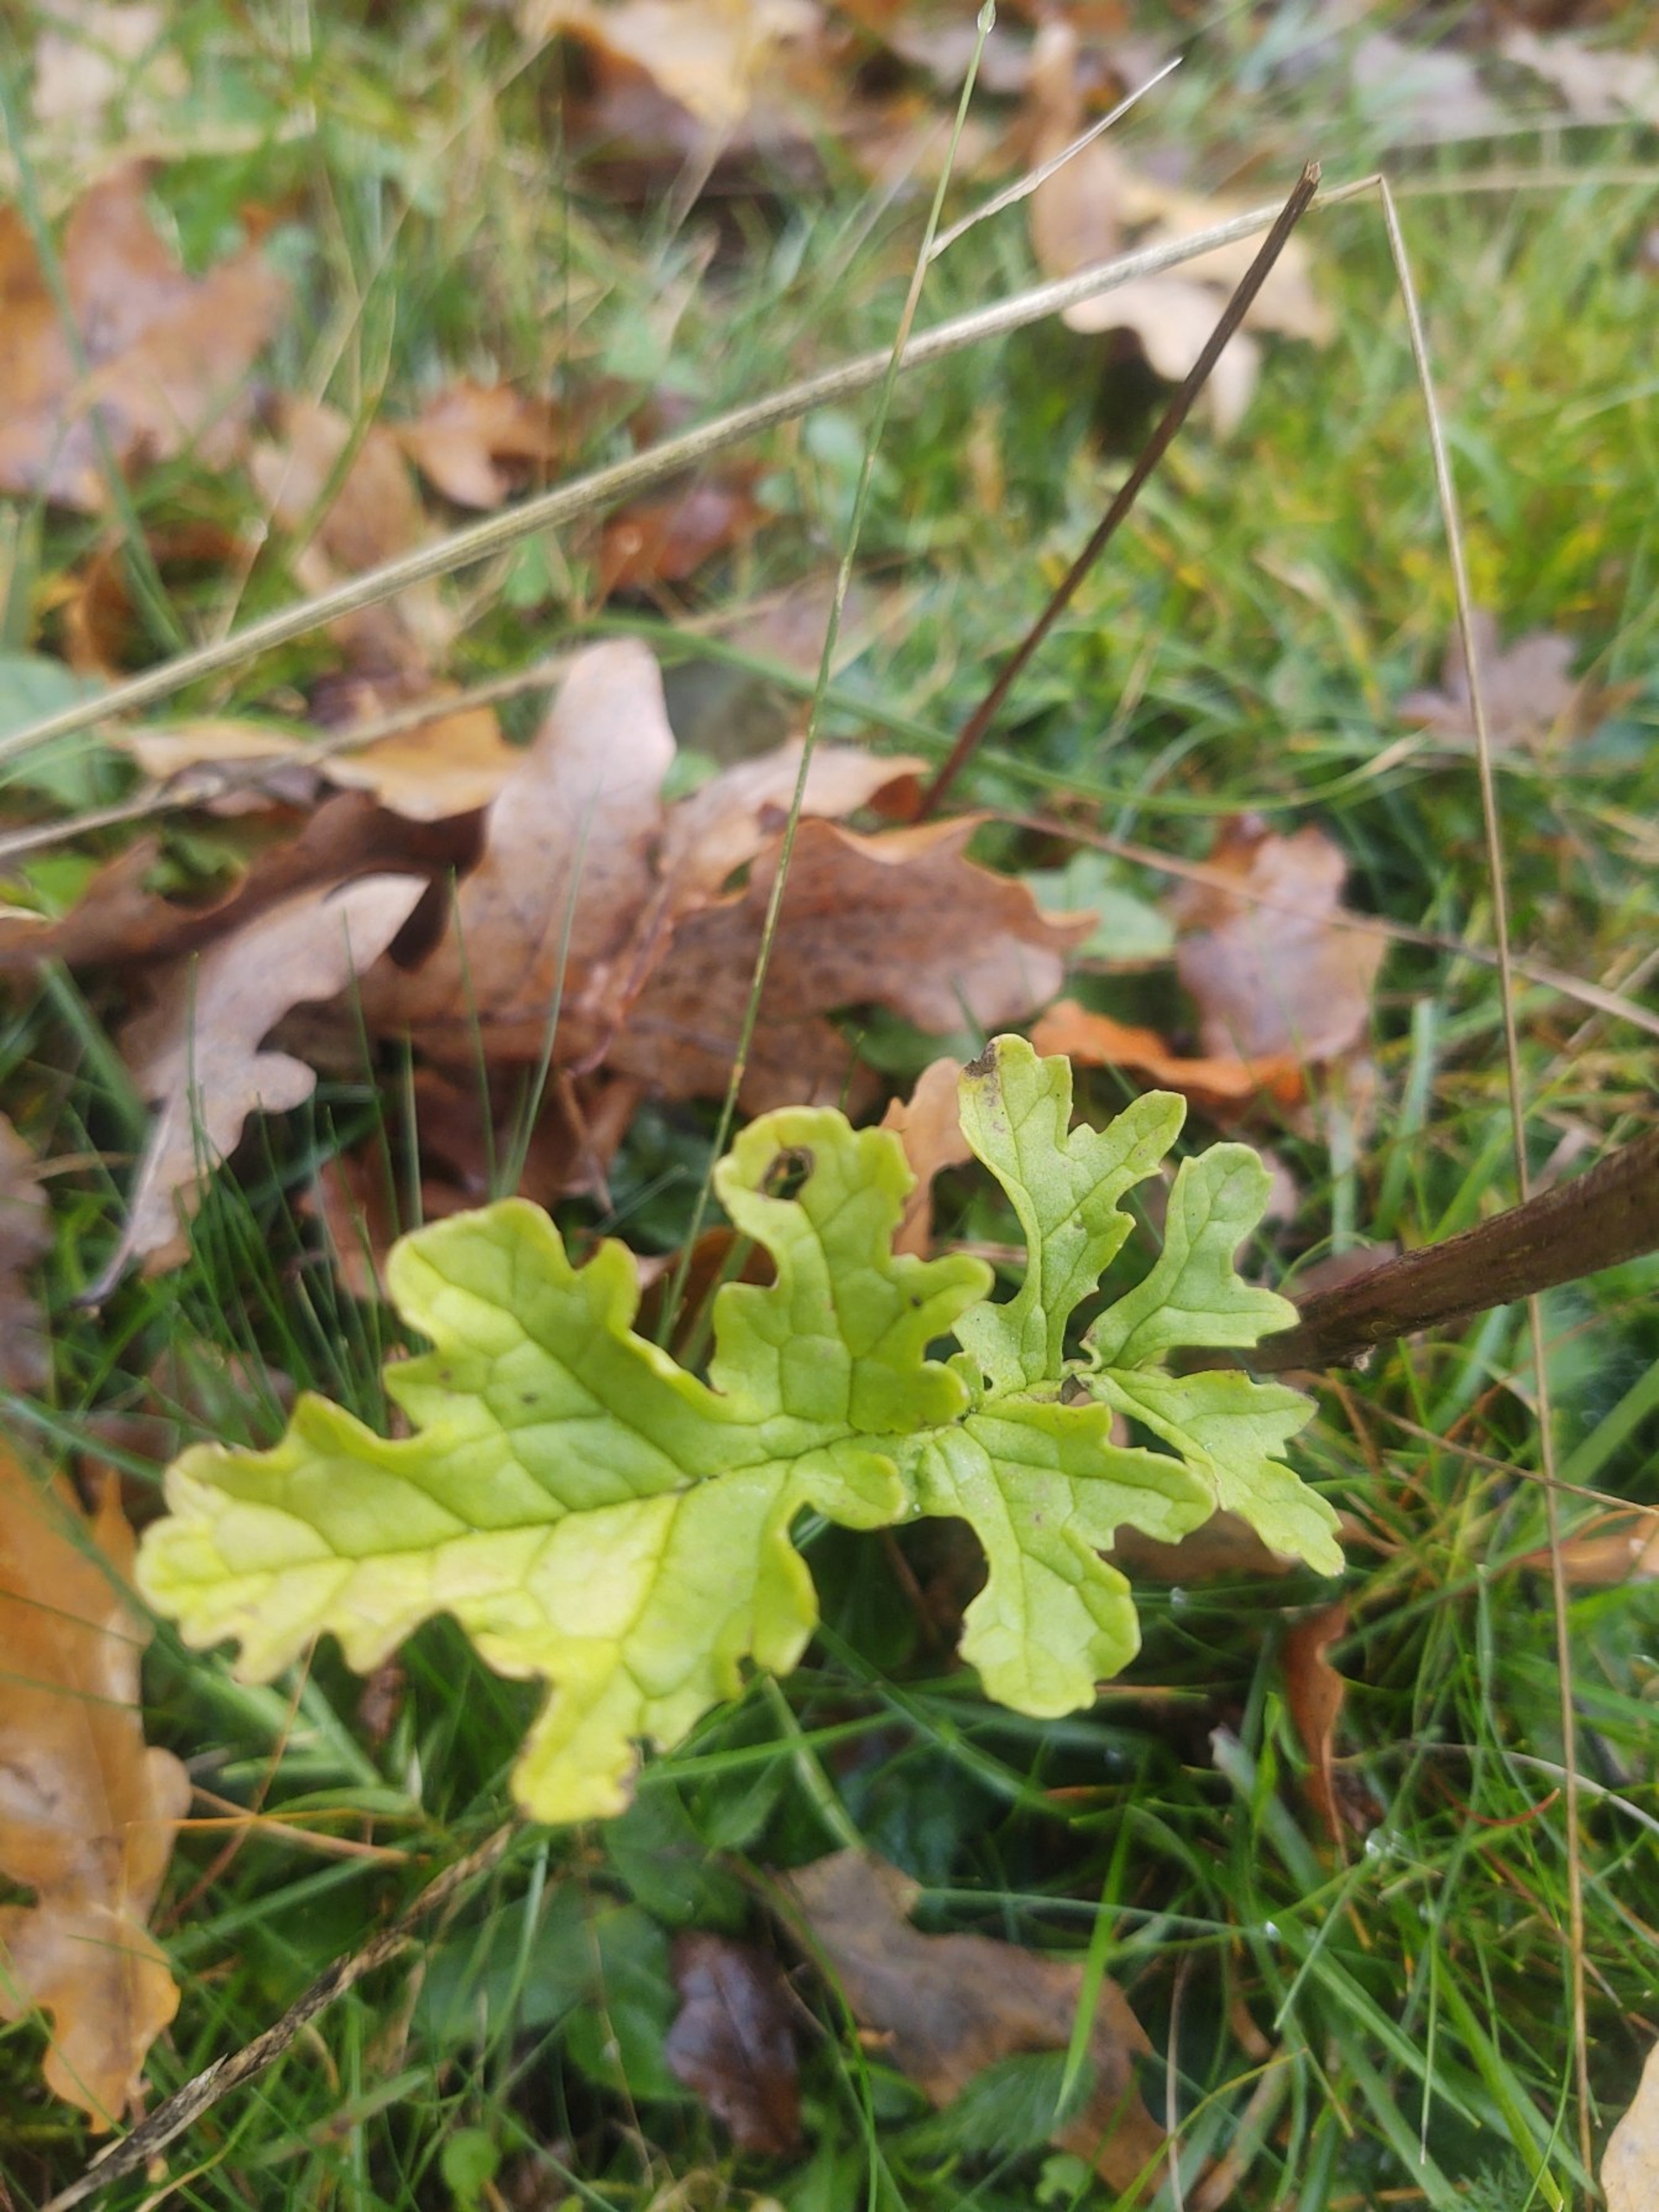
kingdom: Plantae
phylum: Tracheophyta
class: Magnoliopsida
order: Asterales
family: Asteraceae
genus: Jacobaea
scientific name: Jacobaea vulgaris
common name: Eng-brandbæger
